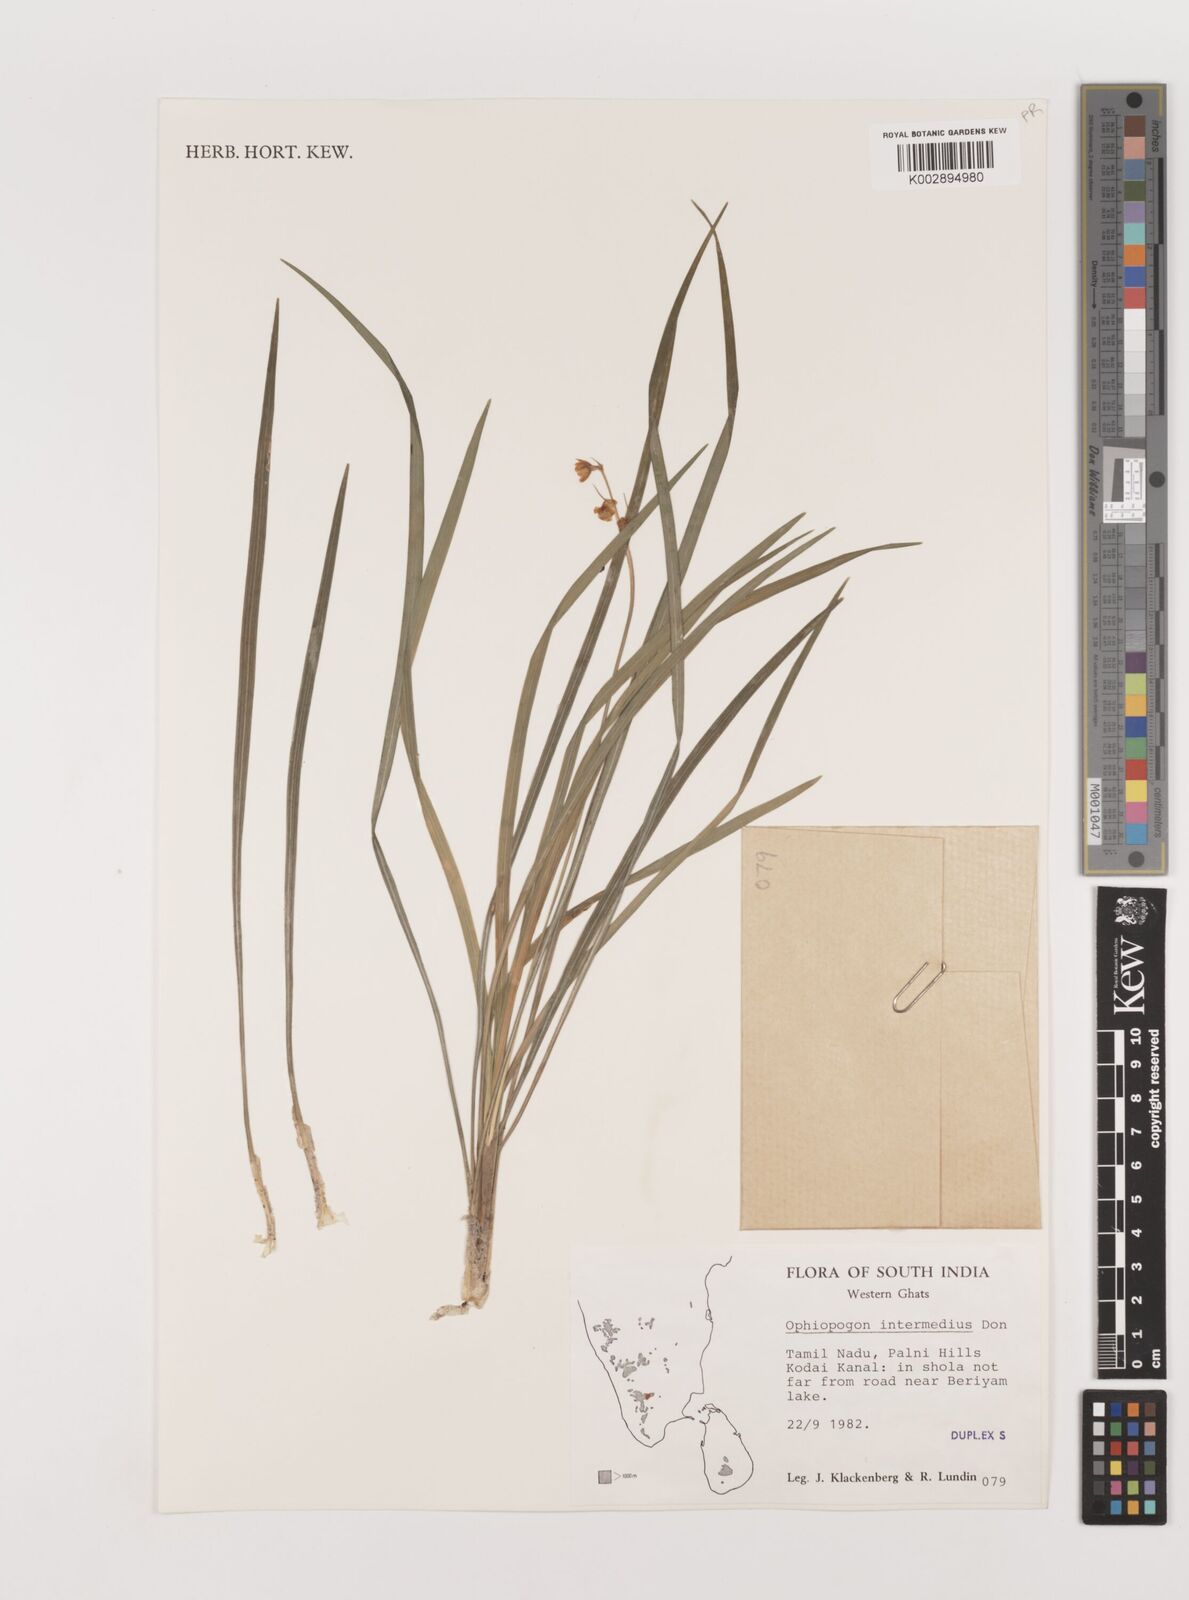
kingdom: Plantae
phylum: Tracheophyta
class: Liliopsida
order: Asparagales
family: Asparagaceae
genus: Ophiopogon
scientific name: Ophiopogon intermedius
